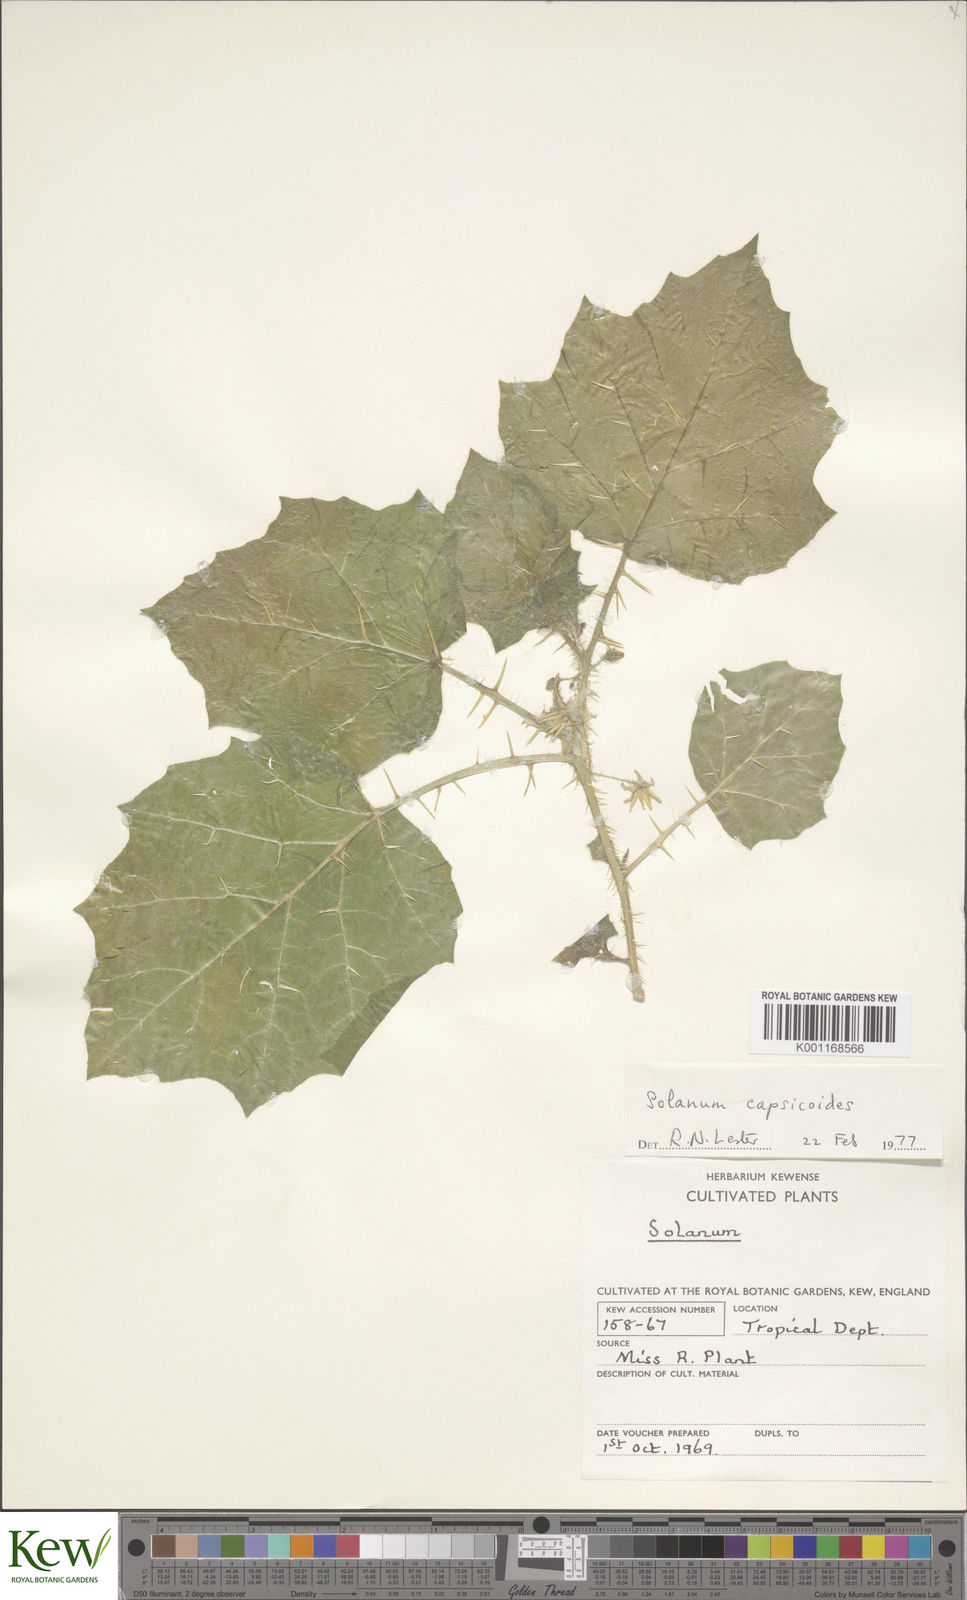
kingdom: Plantae
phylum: Tracheophyta
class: Magnoliopsida
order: Solanales
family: Solanaceae
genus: Solanum
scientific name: Solanum capsicoides
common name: Cockroach berry
